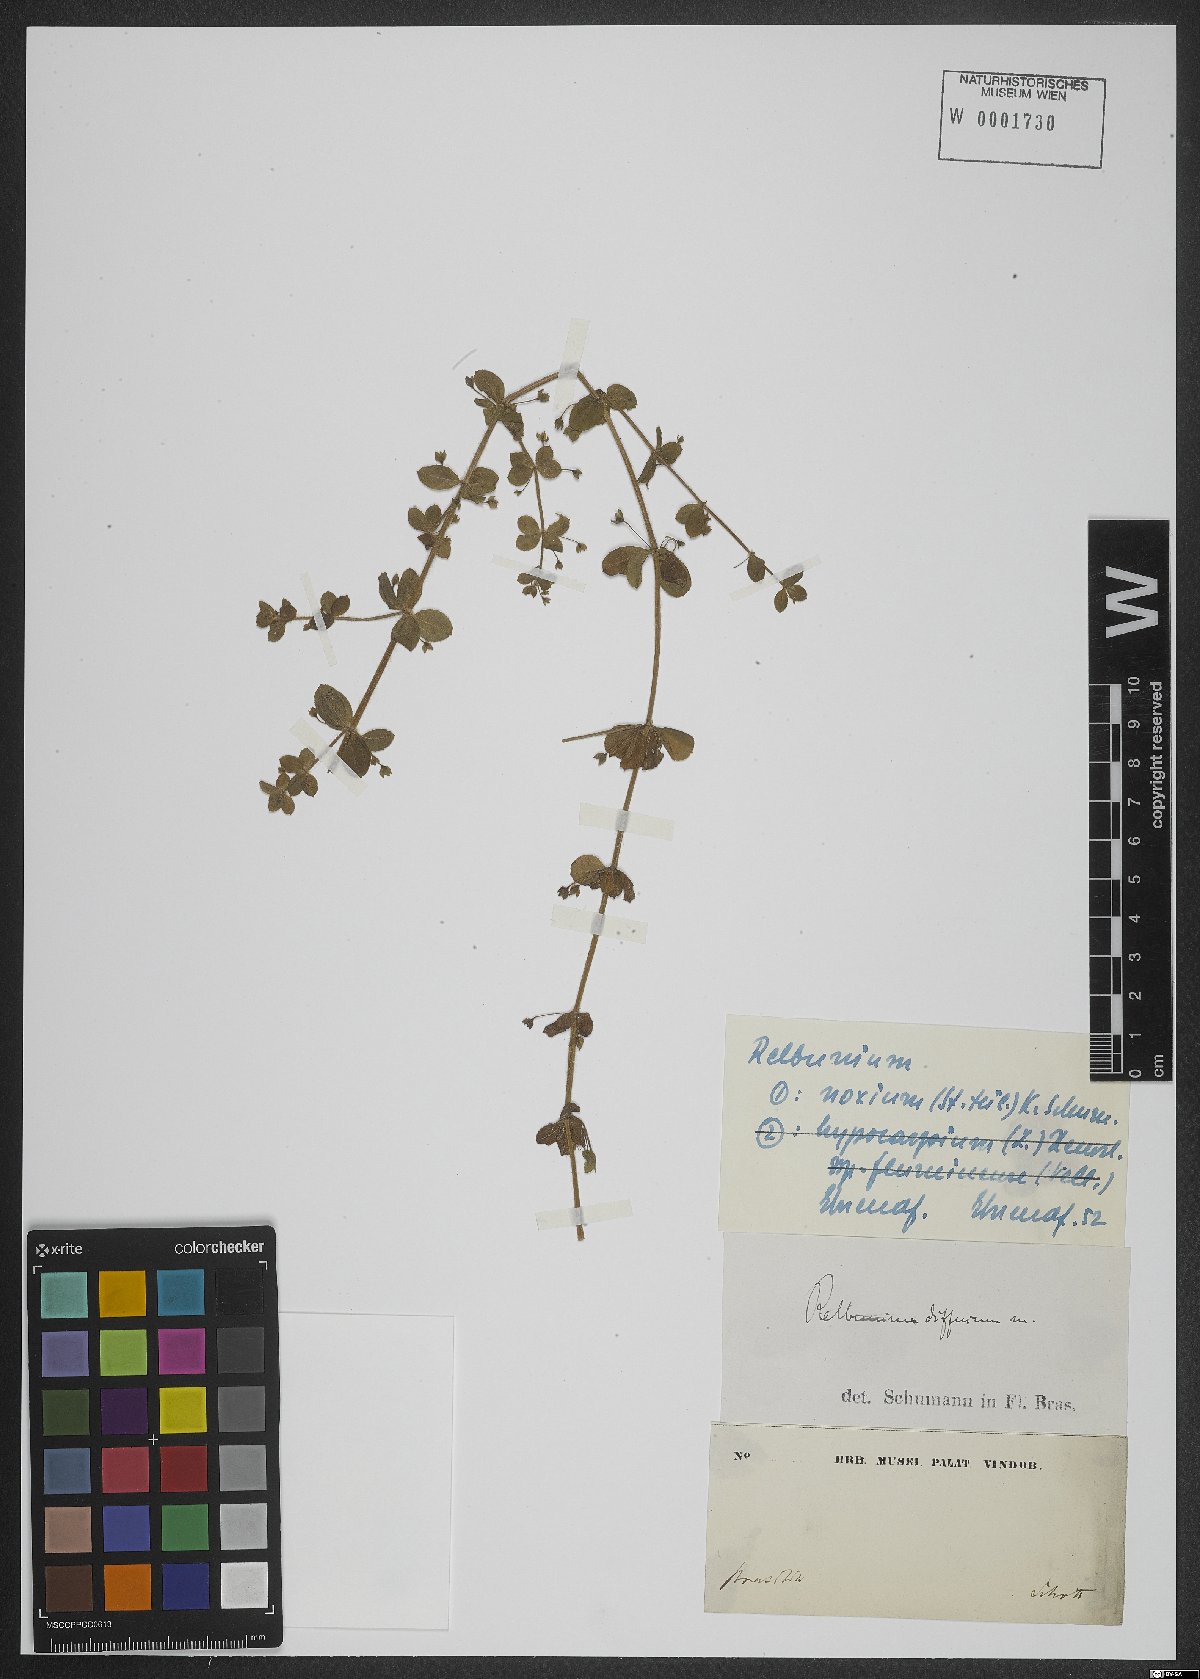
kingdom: Plantae
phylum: Tracheophyta
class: Magnoliopsida
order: Gentianales
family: Rubiaceae
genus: Galium
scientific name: Galium noxium
